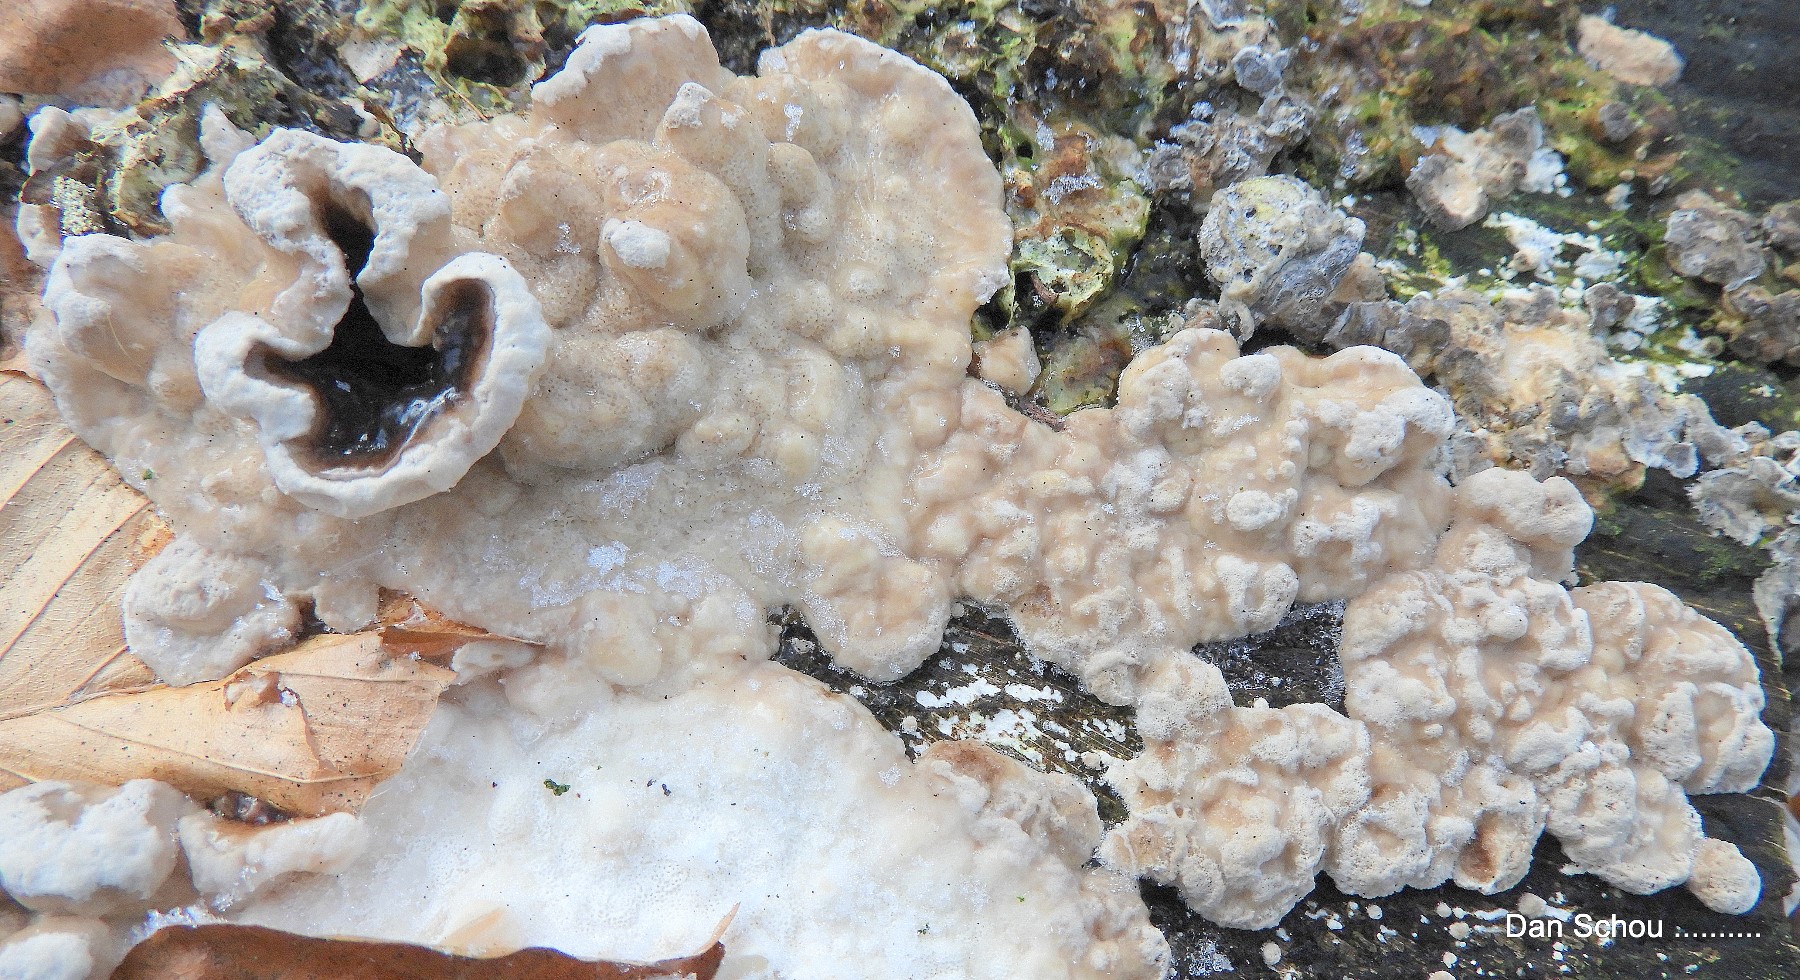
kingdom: Fungi
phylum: Basidiomycota
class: Agaricomycetes
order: Polyporales
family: Phanerochaetaceae
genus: Bjerkandera
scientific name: Bjerkandera adusta
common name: sveden sodporesvamp
